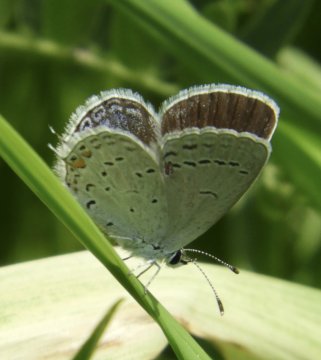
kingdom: Animalia
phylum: Arthropoda
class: Insecta
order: Lepidoptera
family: Lycaenidae
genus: Elkalyce
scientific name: Elkalyce comyntas
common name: Eastern Tailed-Blue
